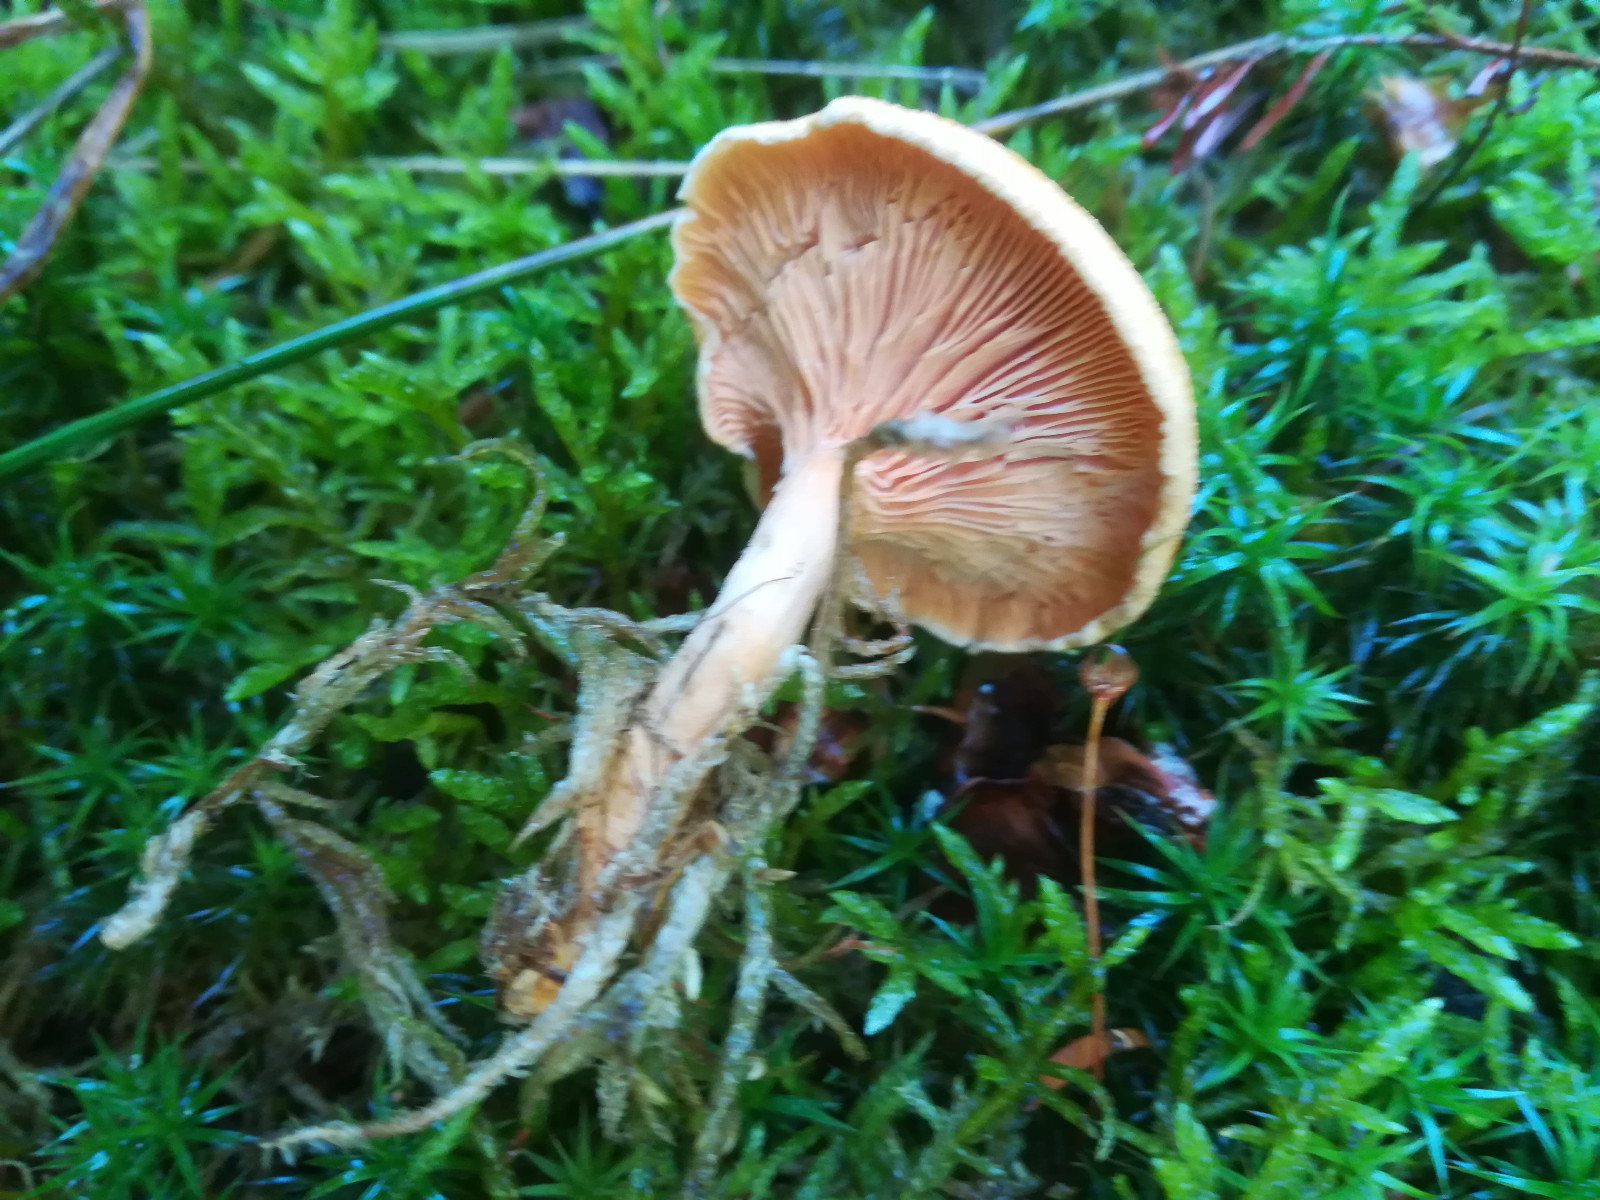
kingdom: Fungi
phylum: Basidiomycota
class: Agaricomycetes
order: Agaricales
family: Hygrophoraceae
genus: Aphroditeola
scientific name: Aphroditeola
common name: Orangekantarel
